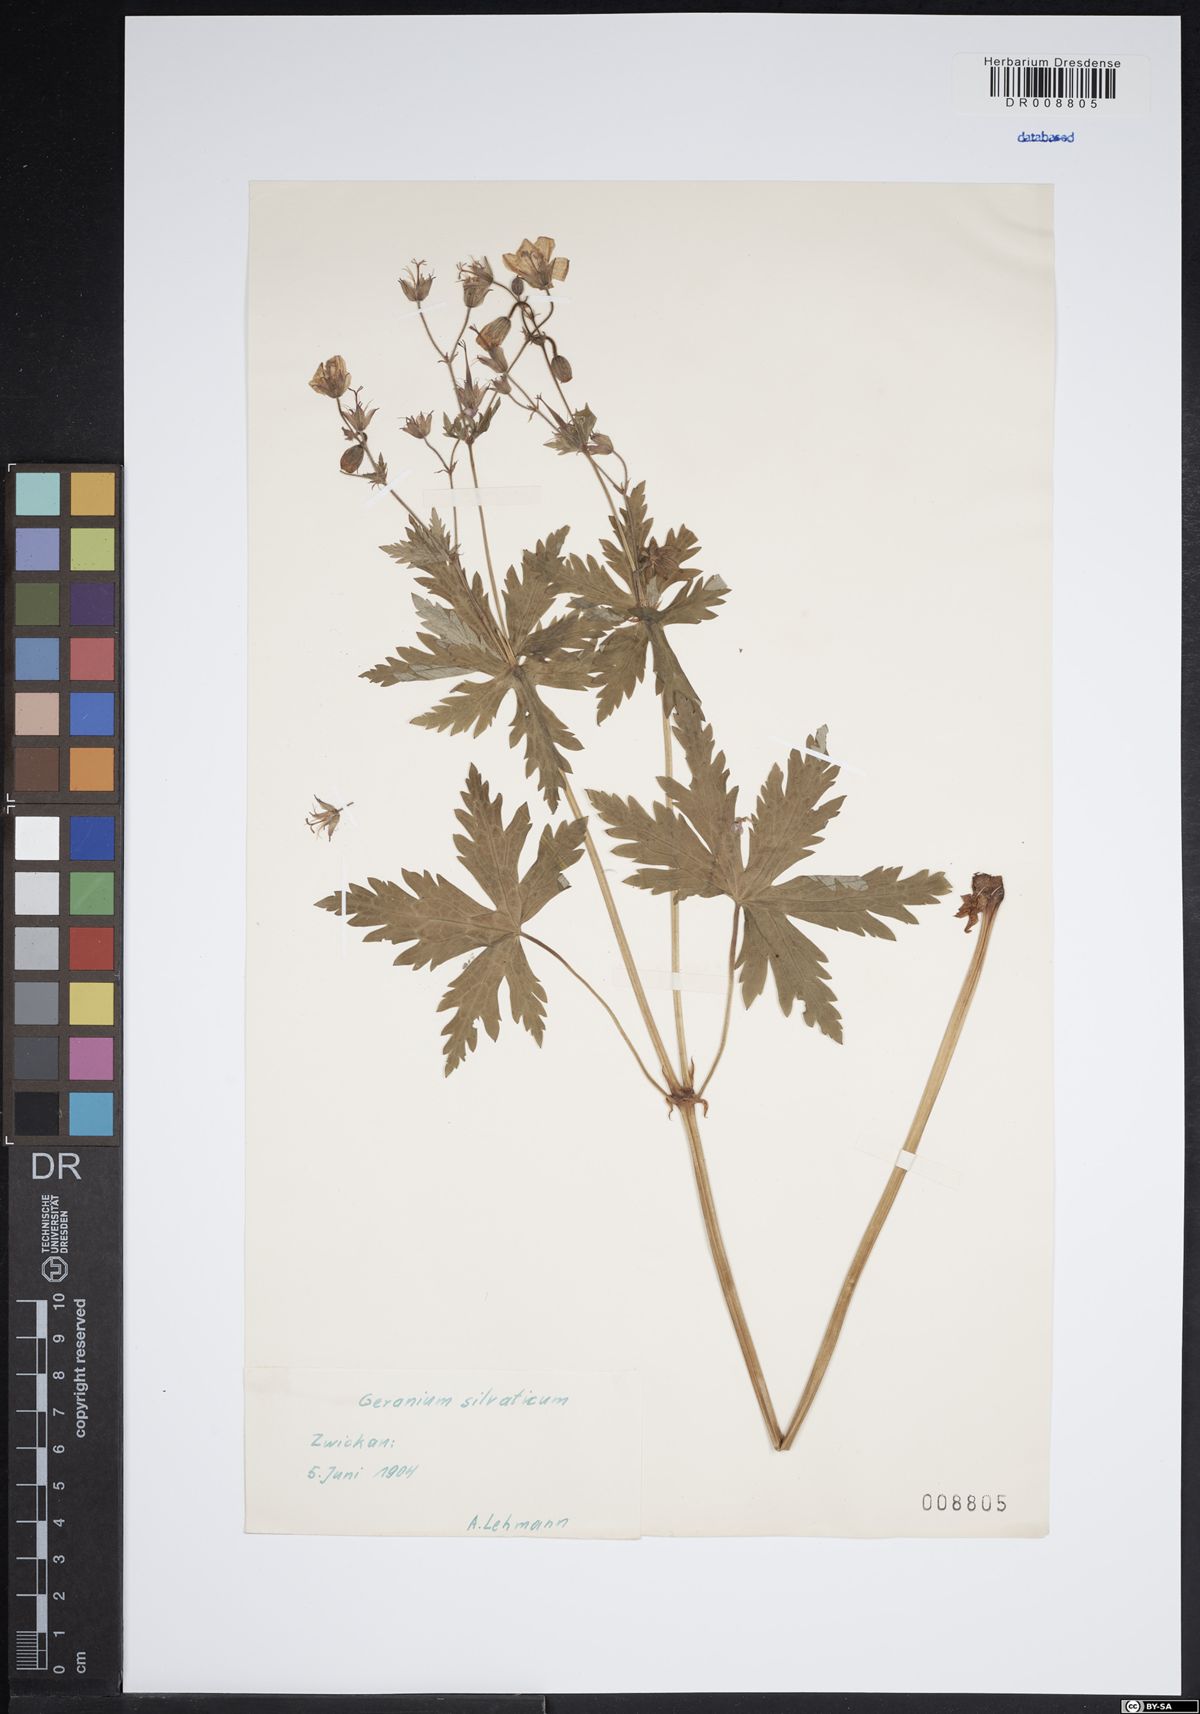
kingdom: Plantae
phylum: Tracheophyta
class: Magnoliopsida
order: Geraniales
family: Geraniaceae
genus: Geranium
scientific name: Geranium sylvaticum
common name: Wood crane's-bill
